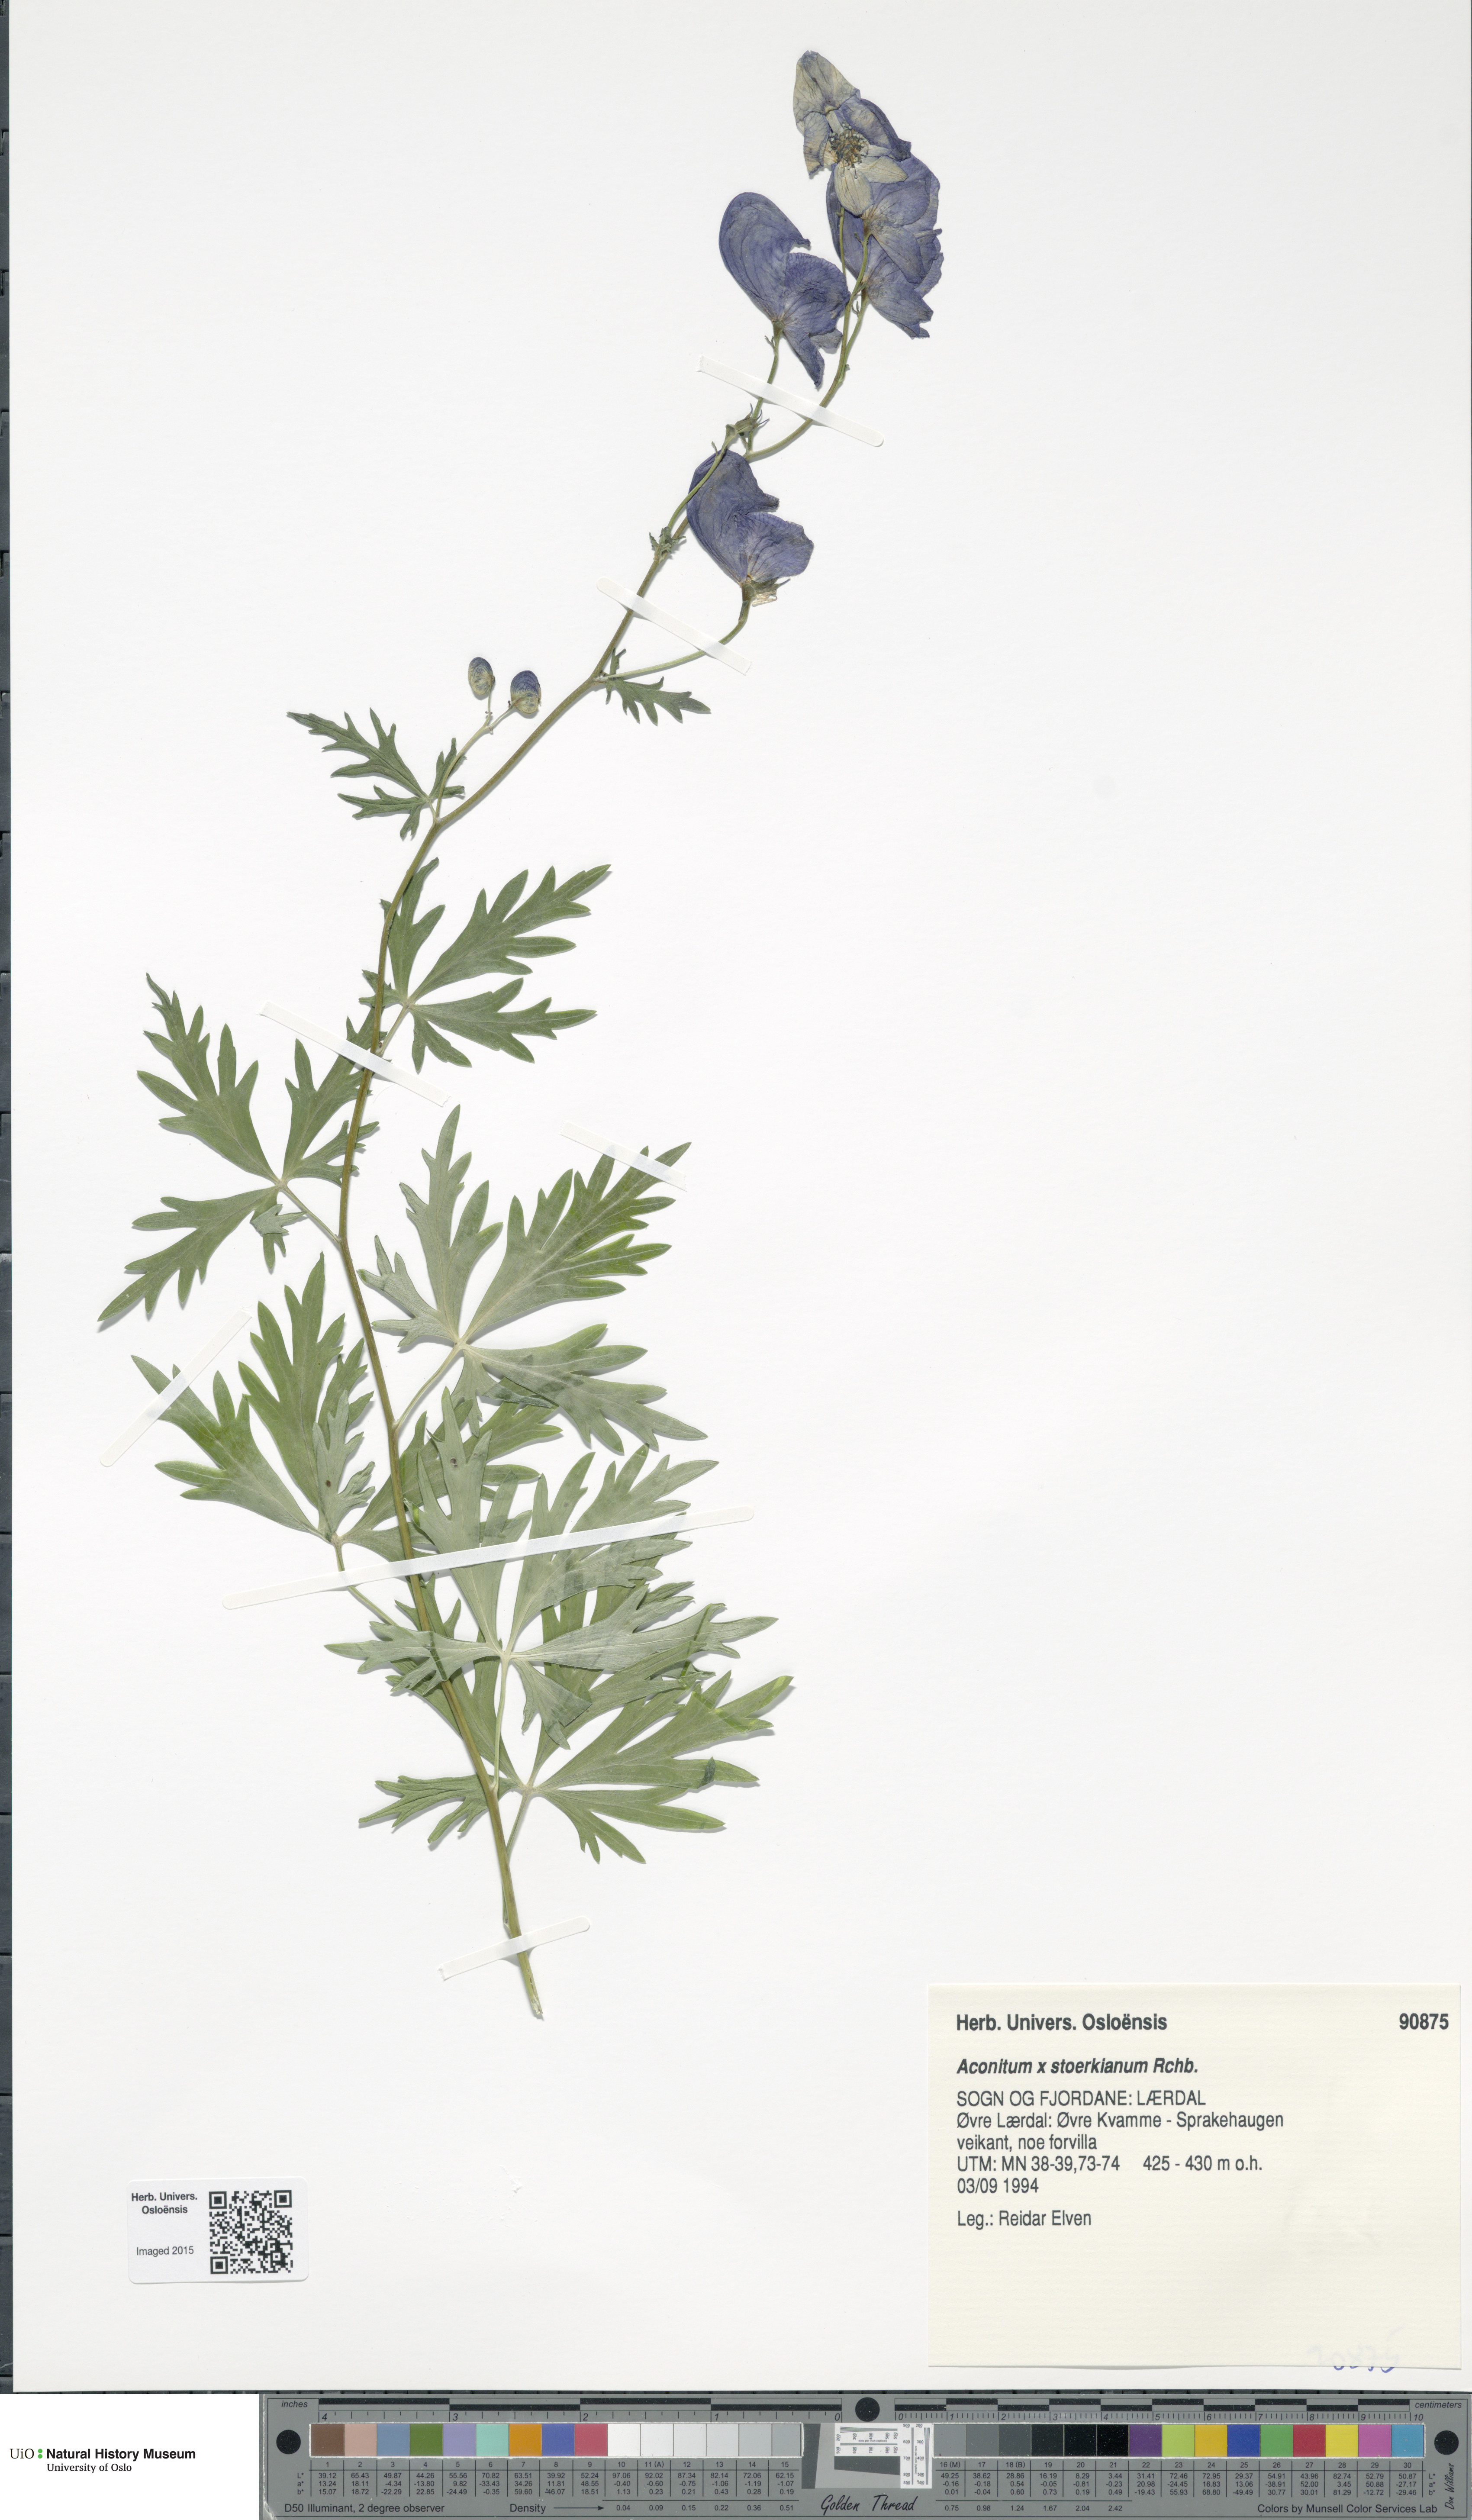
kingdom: Plantae
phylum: Tracheophyta
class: Magnoliopsida
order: Ranunculales
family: Ranunculaceae
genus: Aconitum
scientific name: Aconitum cammarum
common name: Hybrid monk's-hood
